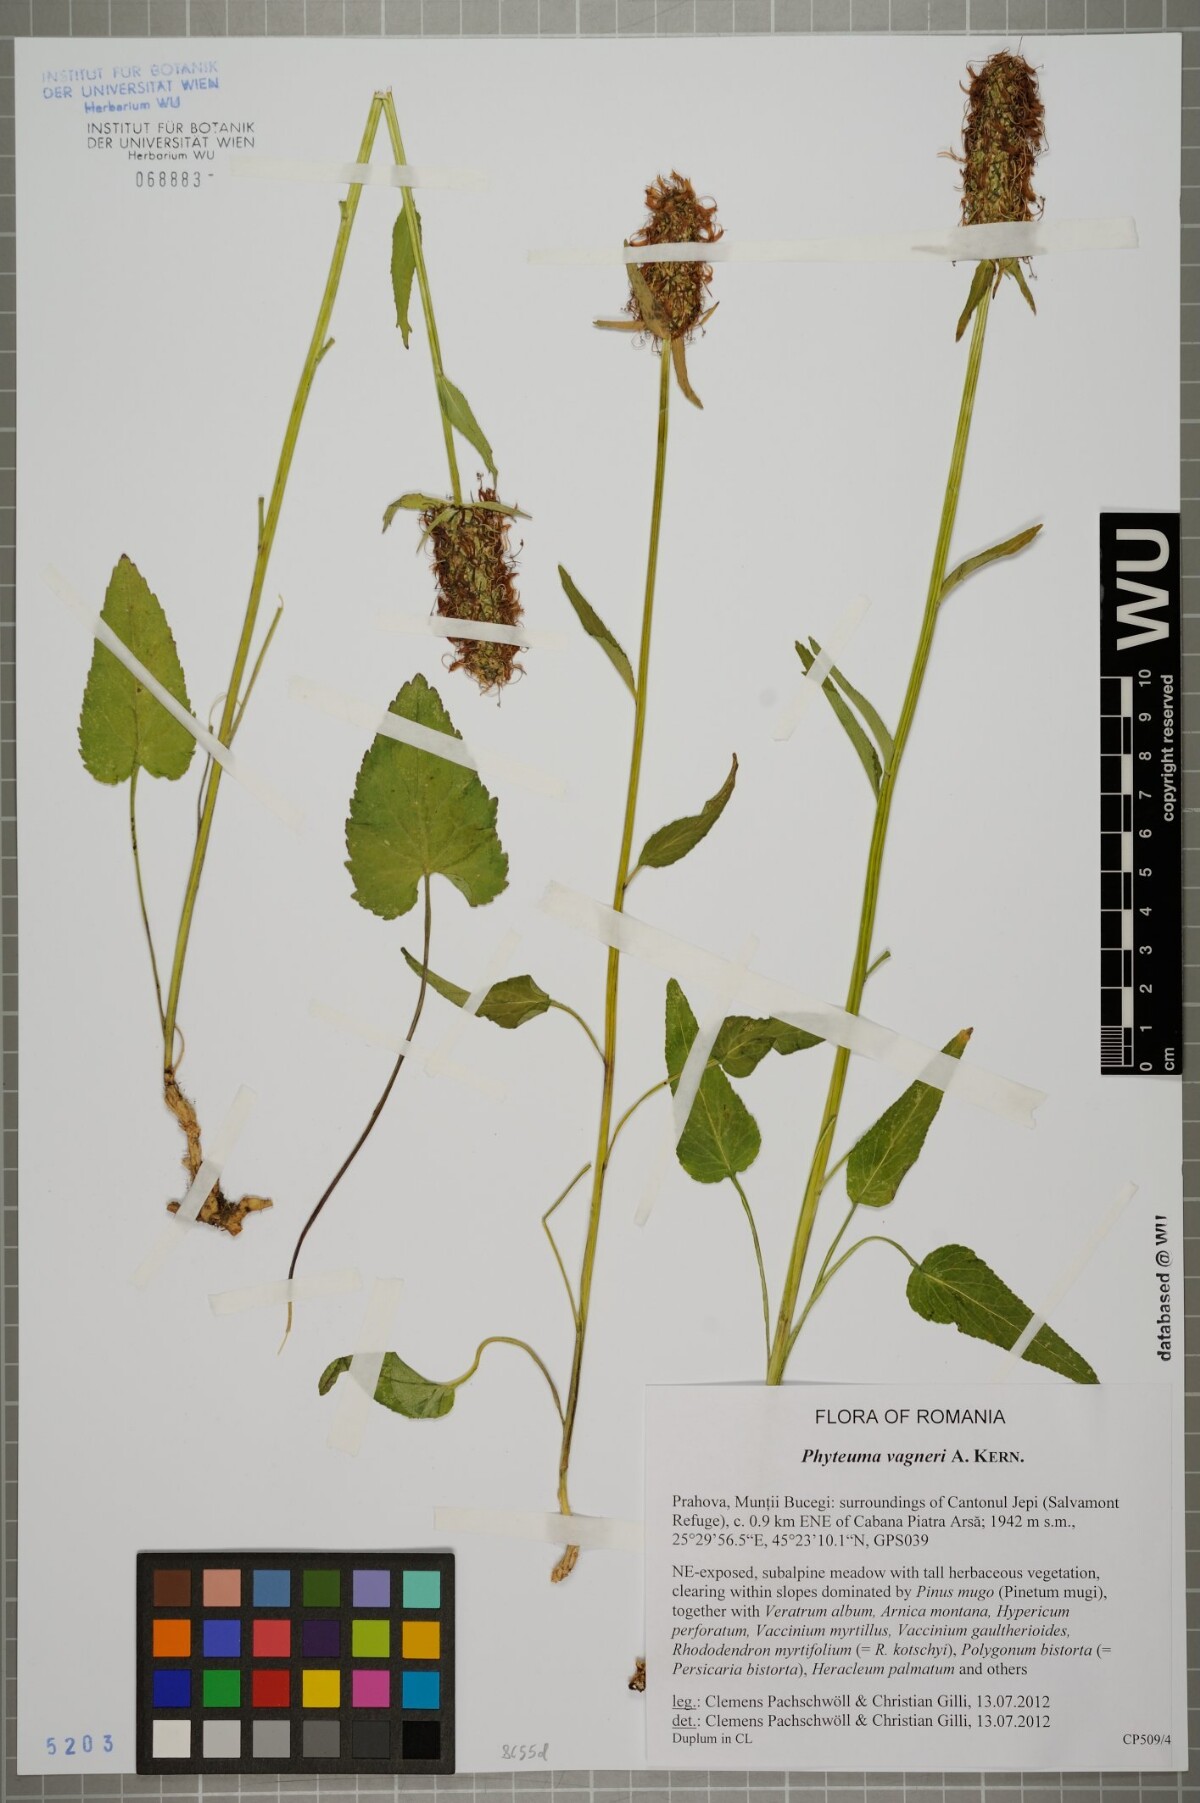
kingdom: Plantae
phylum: Tracheophyta
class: Magnoliopsida
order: Asterales
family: Campanulaceae
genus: Phyteuma
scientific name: Phyteuma vagneri
